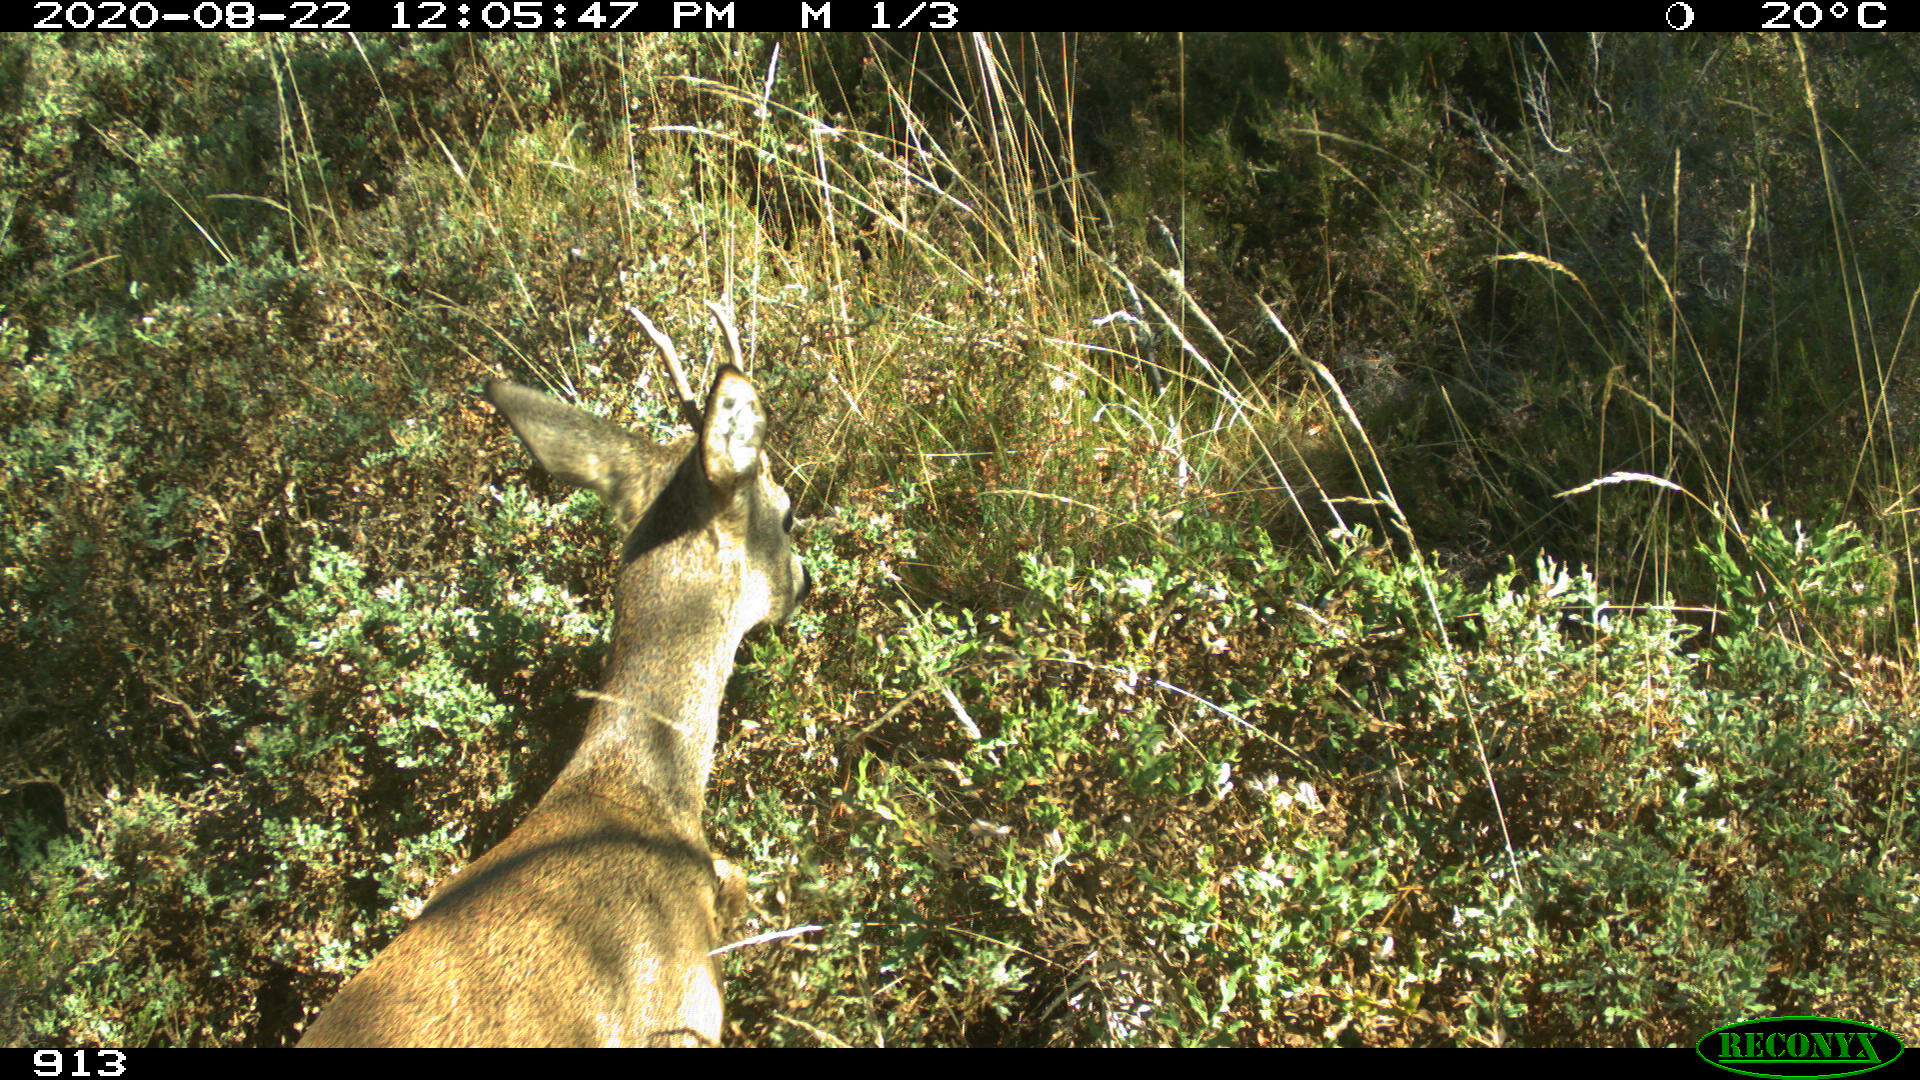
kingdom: Animalia
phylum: Chordata
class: Mammalia
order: Artiodactyla
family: Cervidae
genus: Capreolus
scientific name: Capreolus capreolus
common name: Western roe deer
